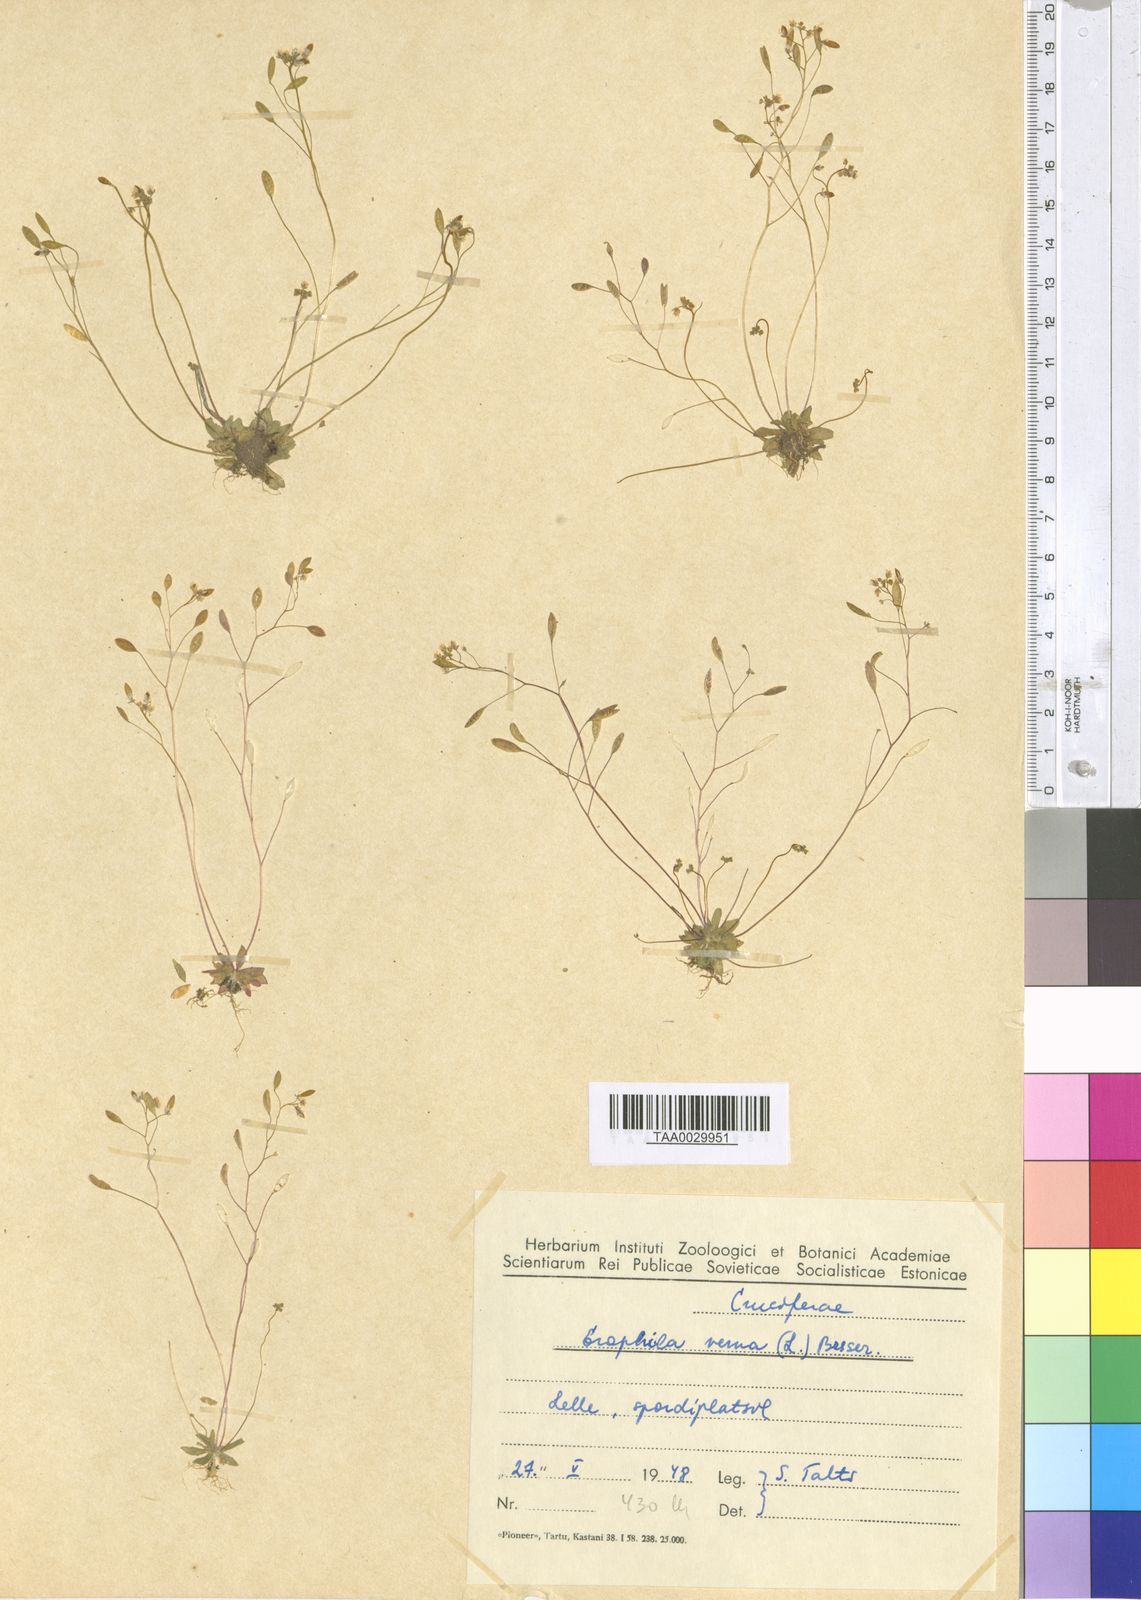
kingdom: Plantae
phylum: Tracheophyta
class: Magnoliopsida
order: Brassicales
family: Brassicaceae
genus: Draba
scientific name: Draba verna
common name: Spring draba
